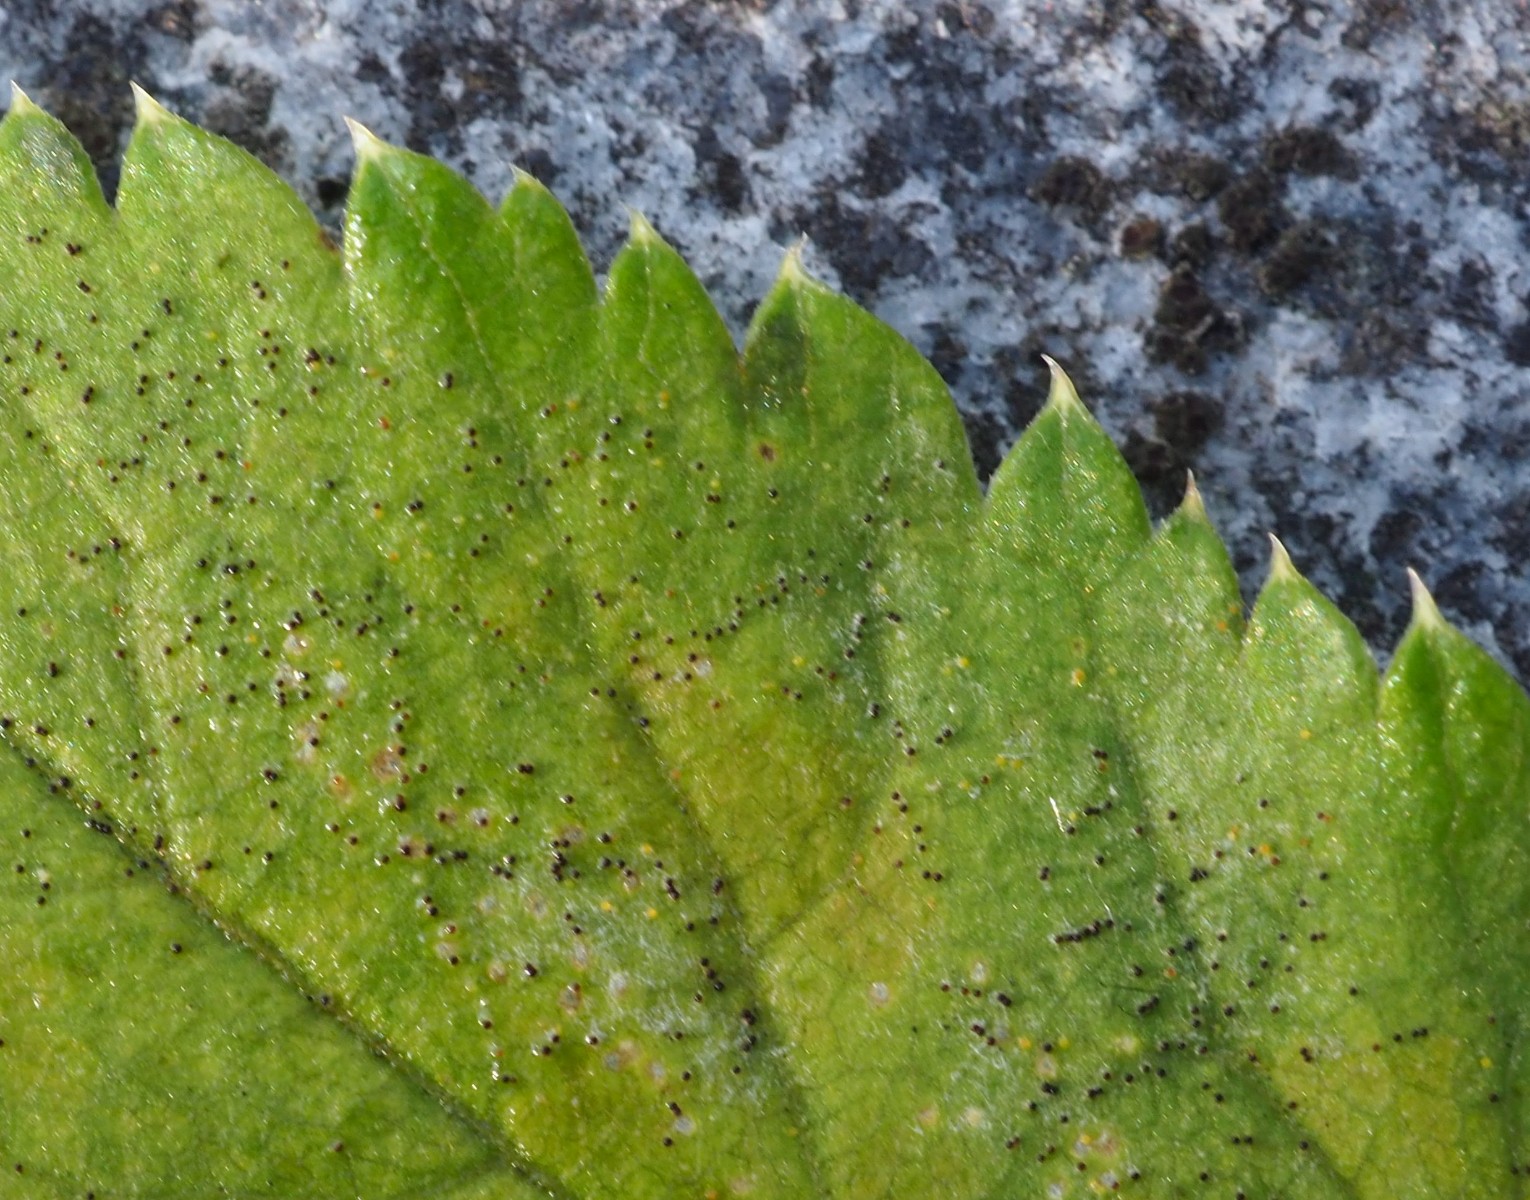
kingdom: Fungi
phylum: Ascomycota
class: Leotiomycetes
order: Helotiales
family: Erysiphaceae
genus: Erysiphe
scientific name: Erysiphe heraclei
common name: skærmplante-meldug
